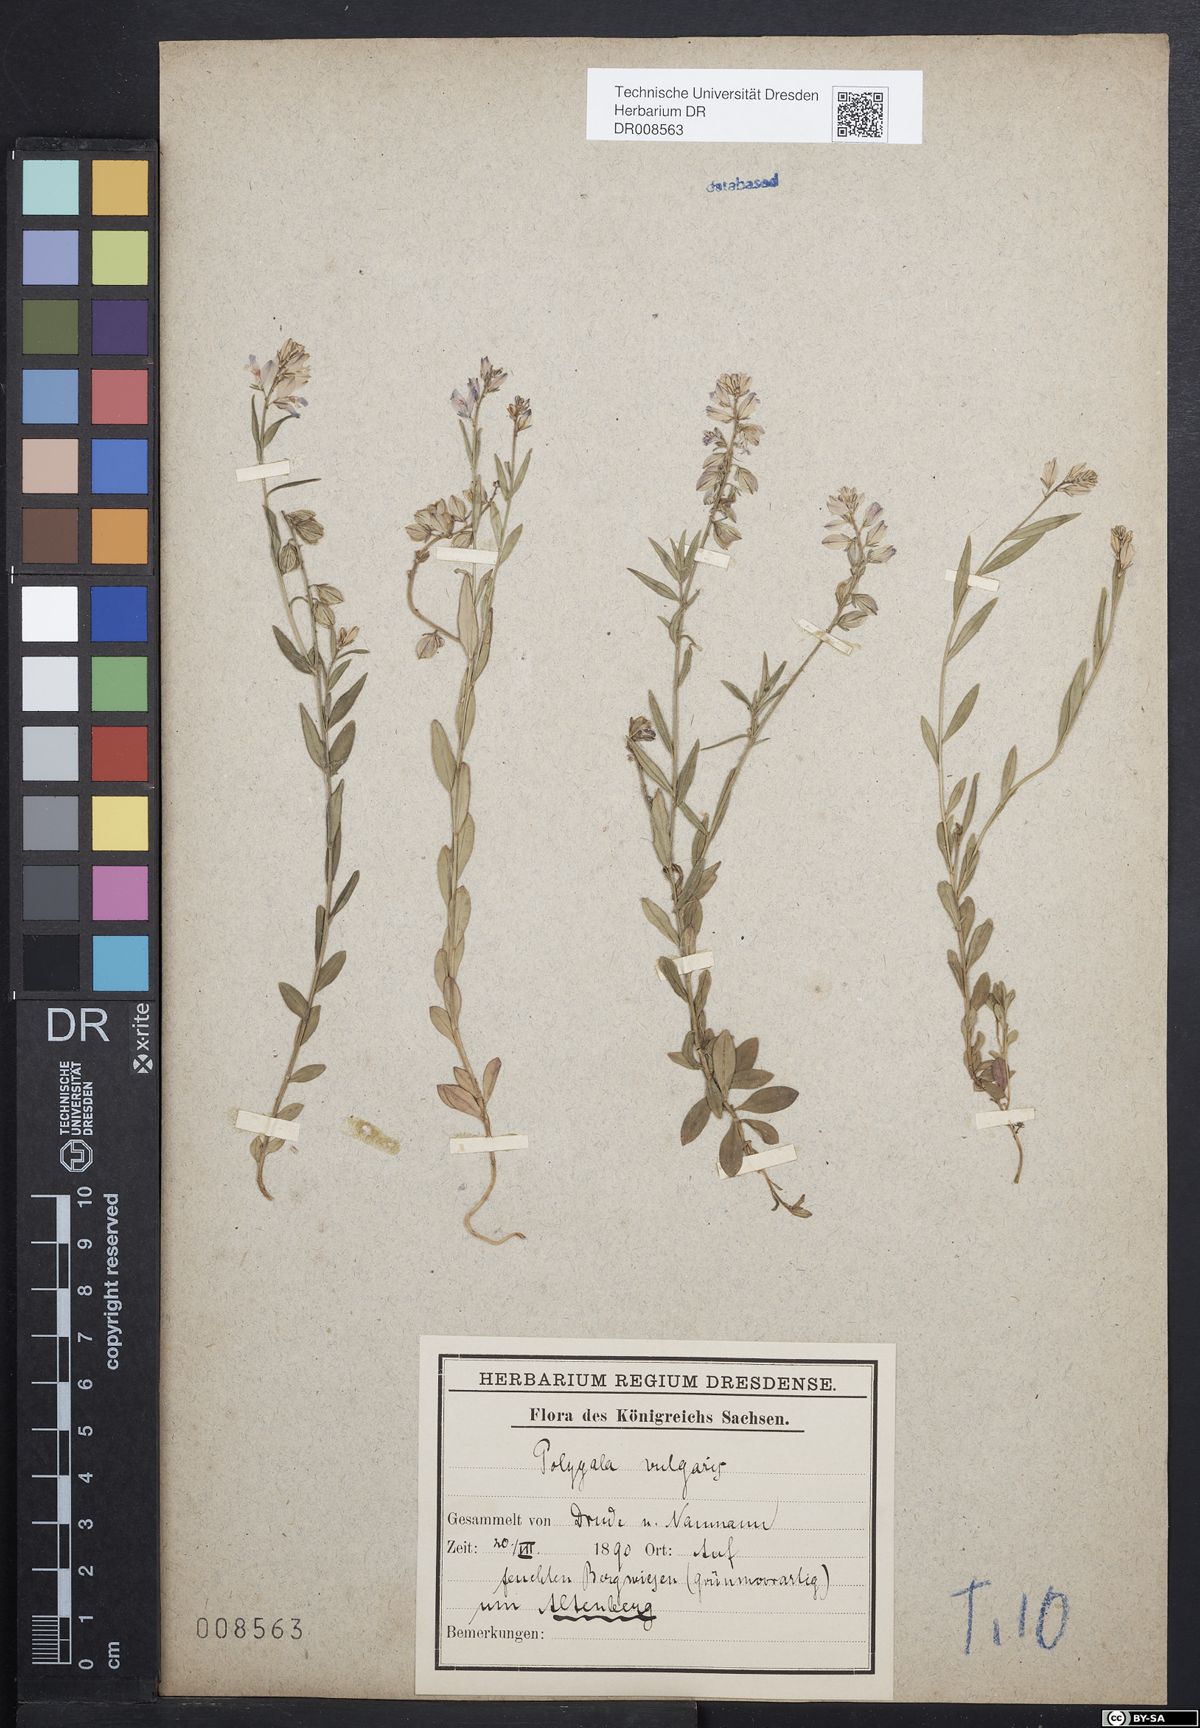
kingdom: Plantae
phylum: Tracheophyta
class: Magnoliopsida
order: Fabales
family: Polygalaceae
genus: Polygala
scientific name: Polygala vulgaris
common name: Common milkwort
